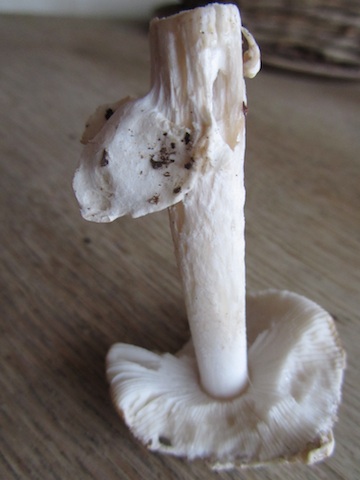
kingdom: Fungi
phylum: Basidiomycota
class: Agaricomycetes
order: Agaricales
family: Amanitaceae
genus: Amanita
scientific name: Amanita
